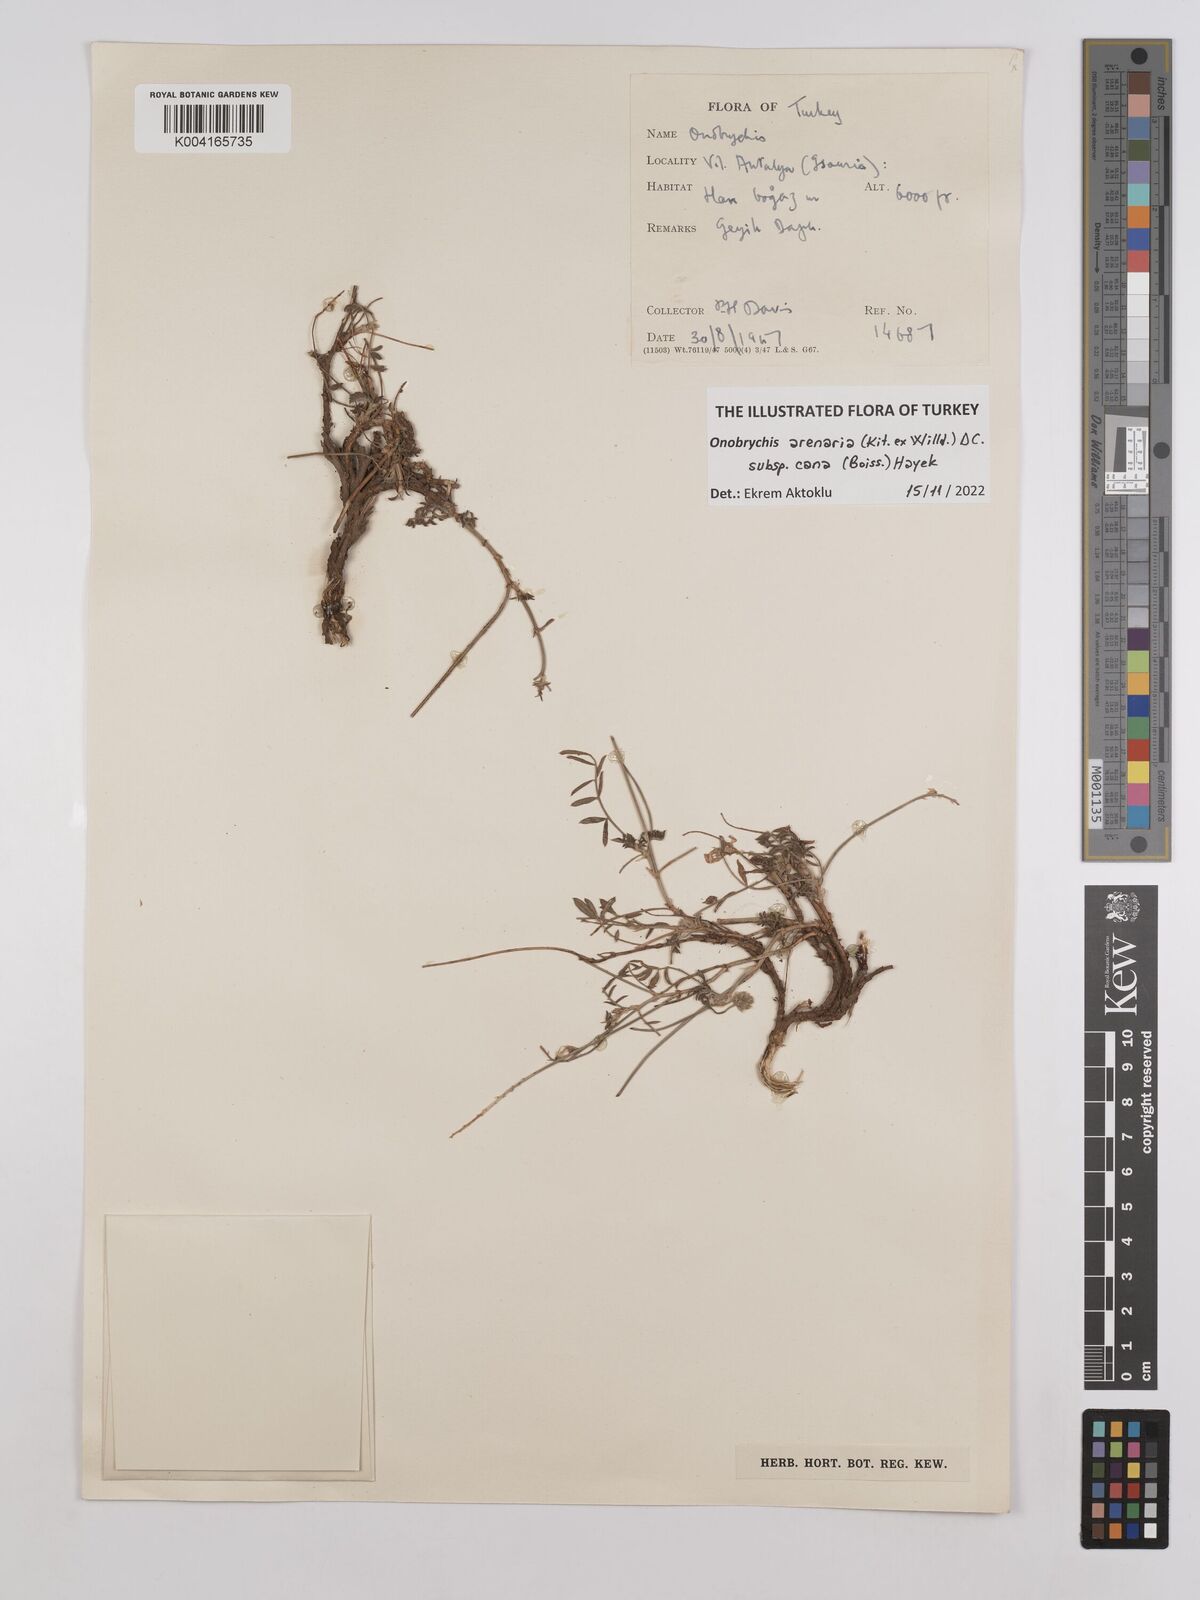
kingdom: Plantae
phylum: Tracheophyta
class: Magnoliopsida
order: Fabales
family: Fabaceae
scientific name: Fabaceae
